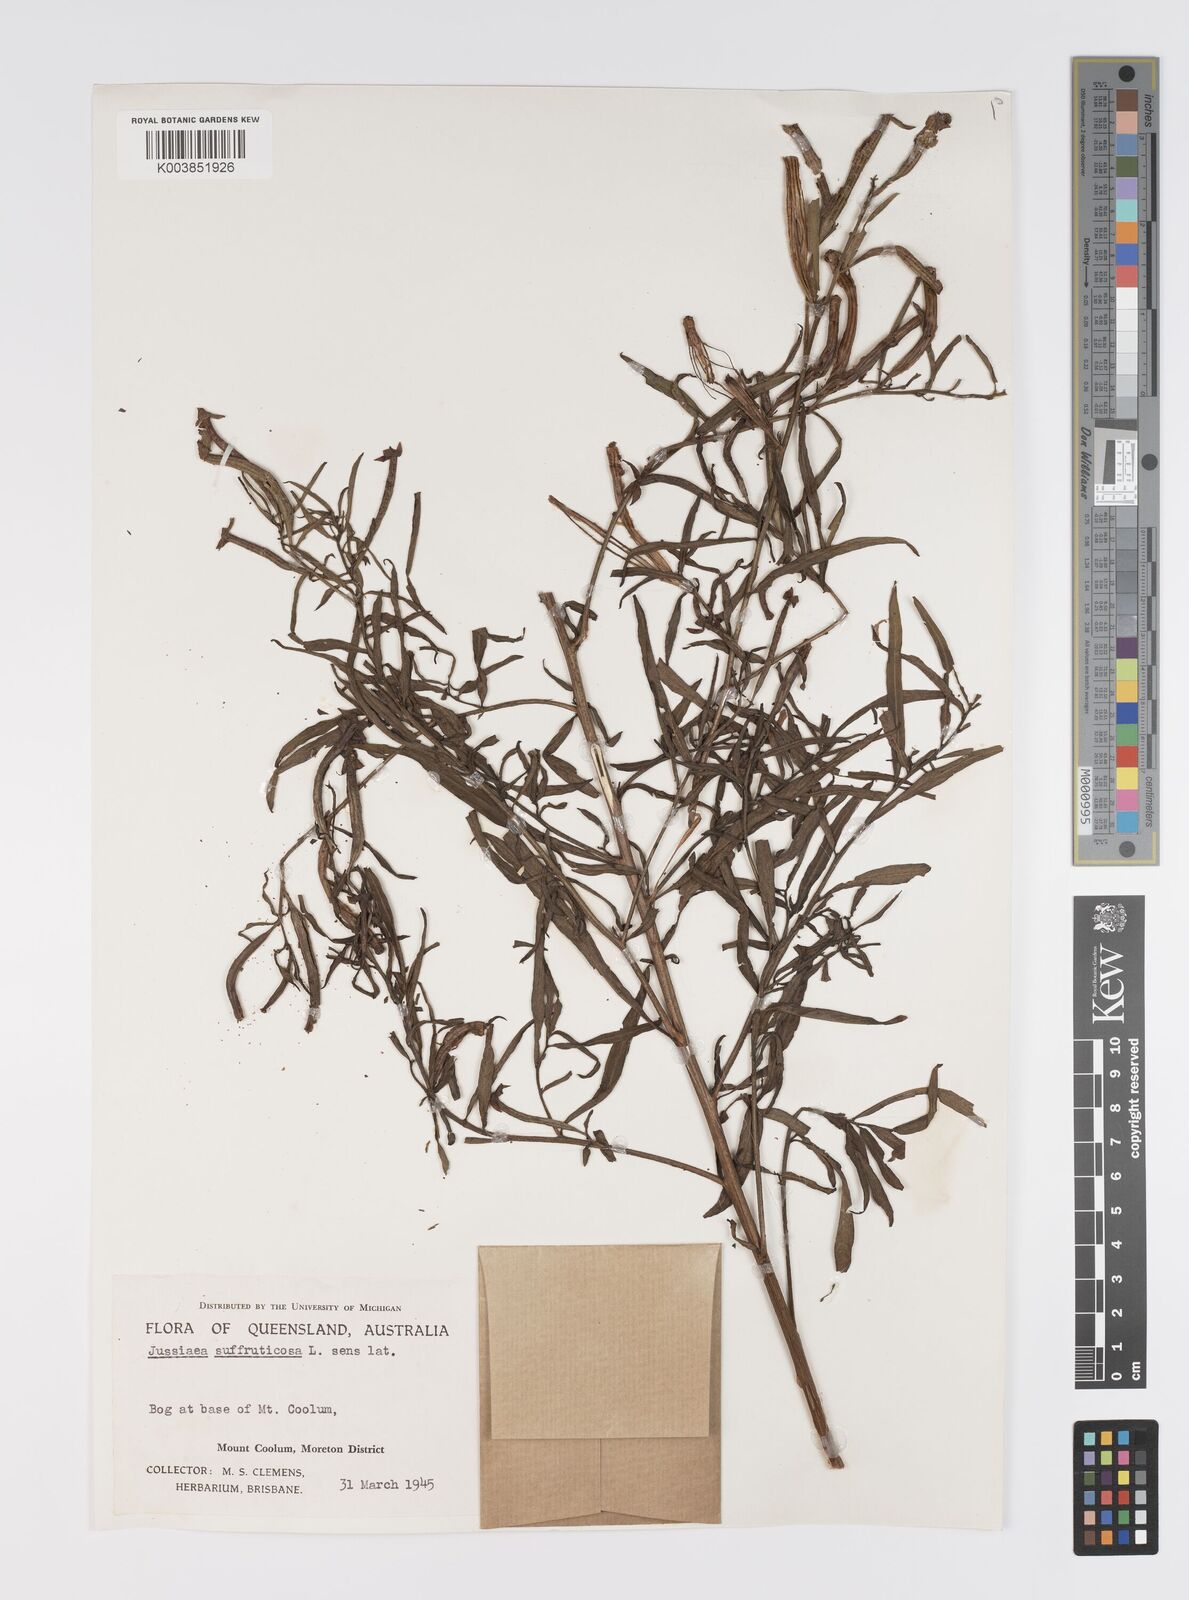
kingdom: Plantae
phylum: Tracheophyta
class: Magnoliopsida
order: Myrtales
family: Onagraceae
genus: Ludwigia
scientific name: Ludwigia octovalvis
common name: Water-primrose
